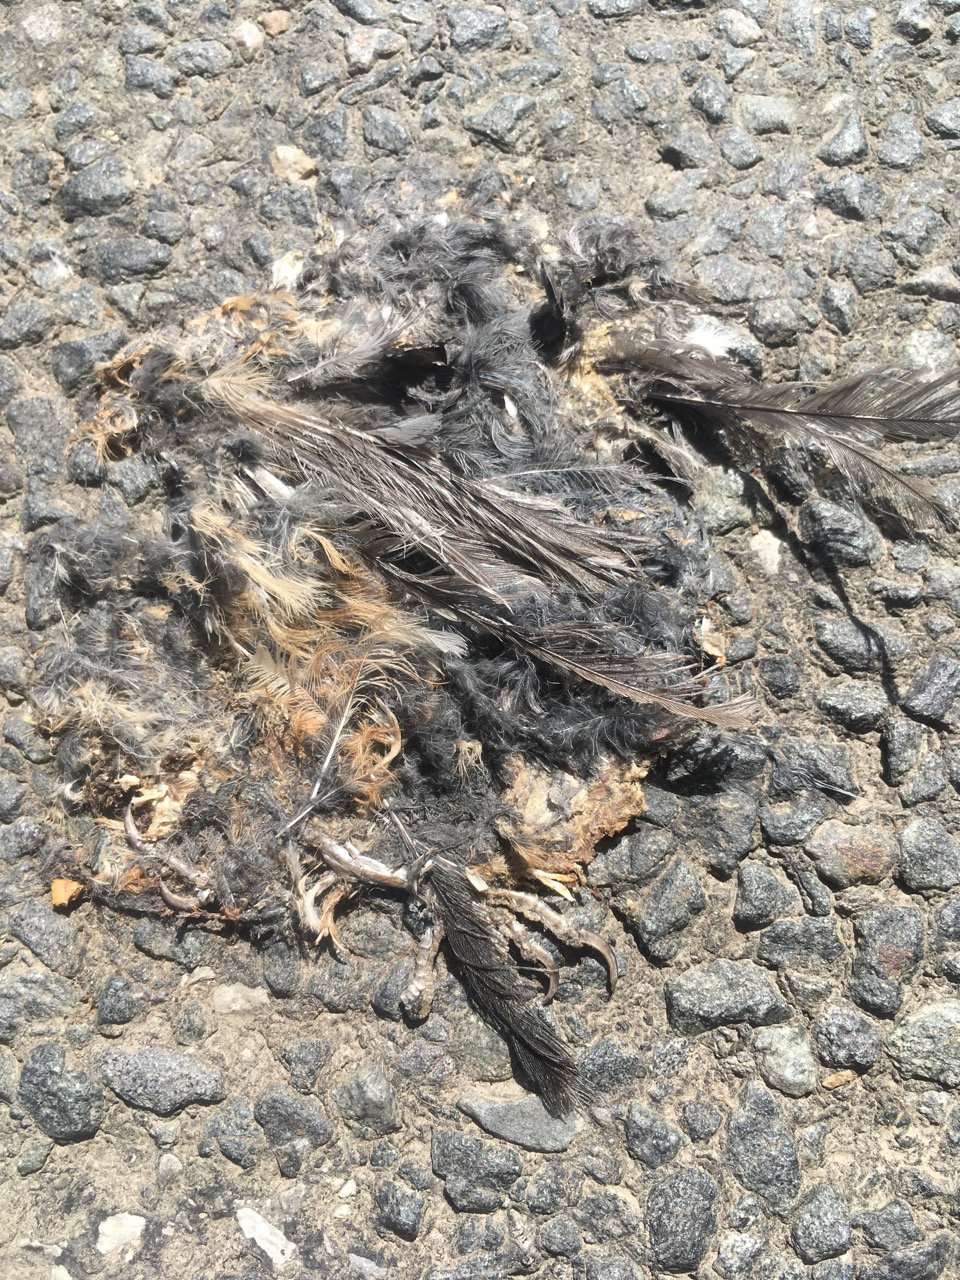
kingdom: Animalia
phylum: Chordata
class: Aves
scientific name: Aves
